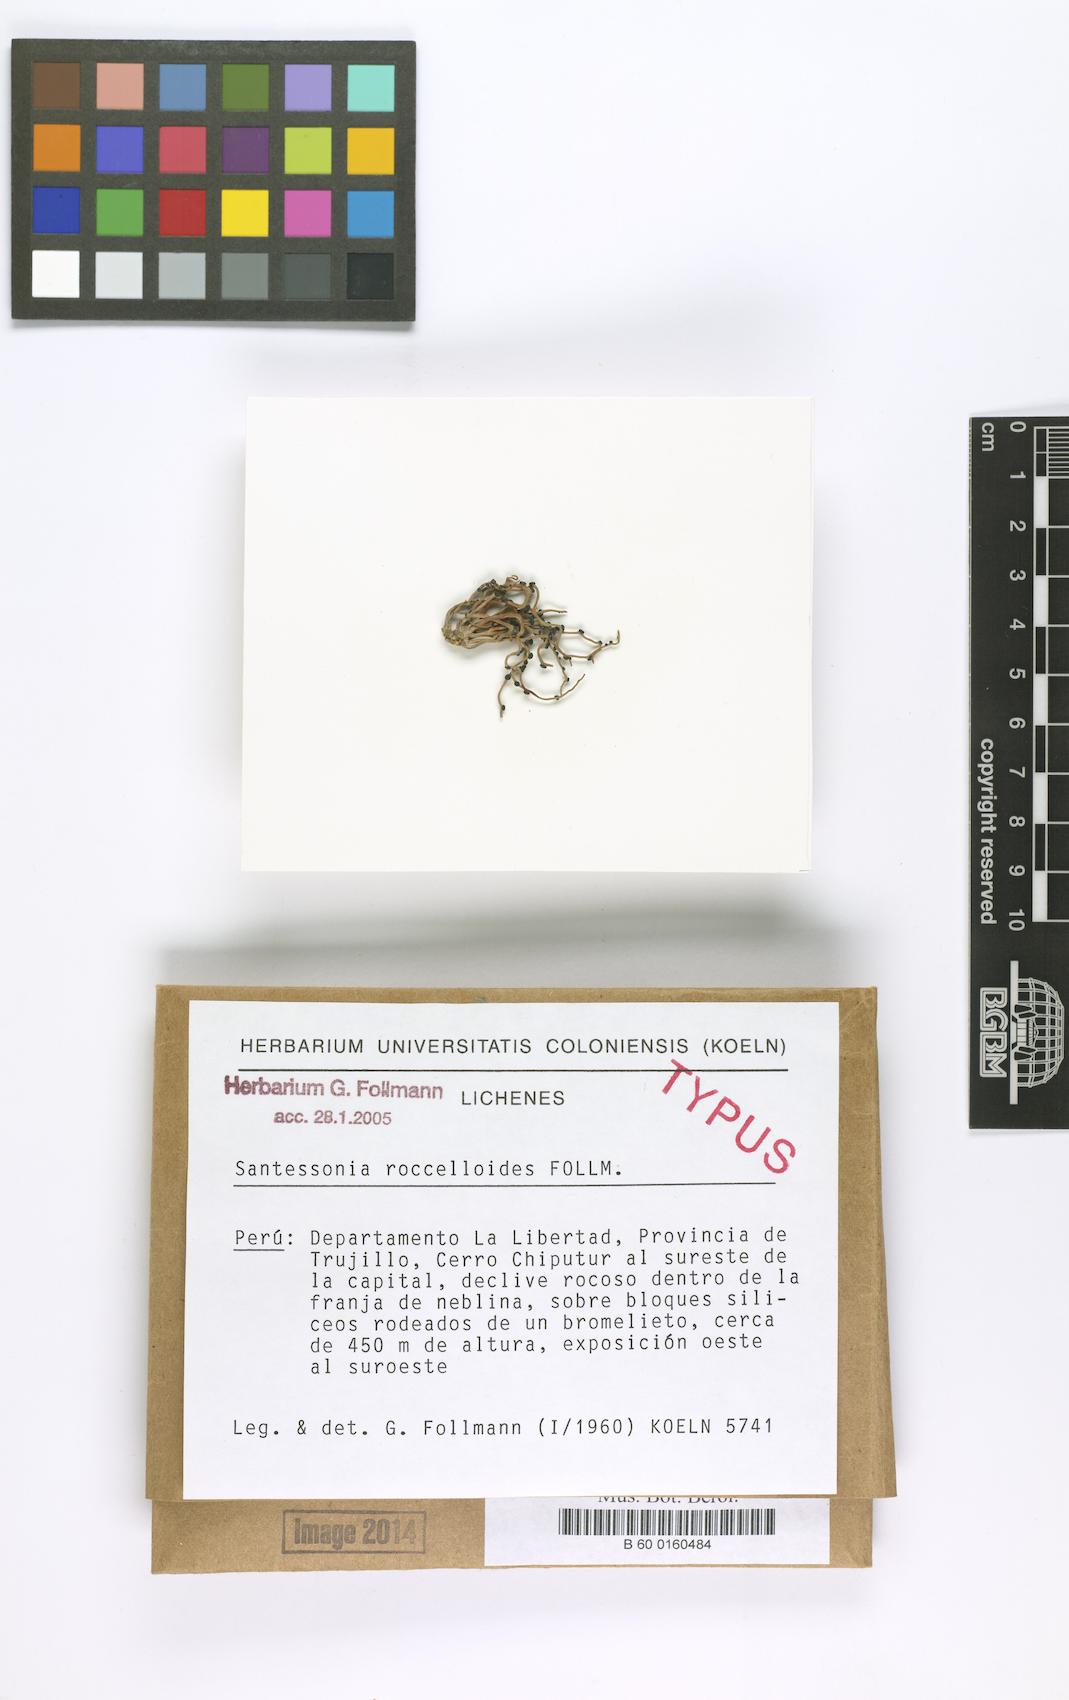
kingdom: Fungi
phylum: Ascomycota
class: Lecanoromycetes
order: Caliciales
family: Caliciaceae
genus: Santessonia
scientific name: Santessonia roccelloides
